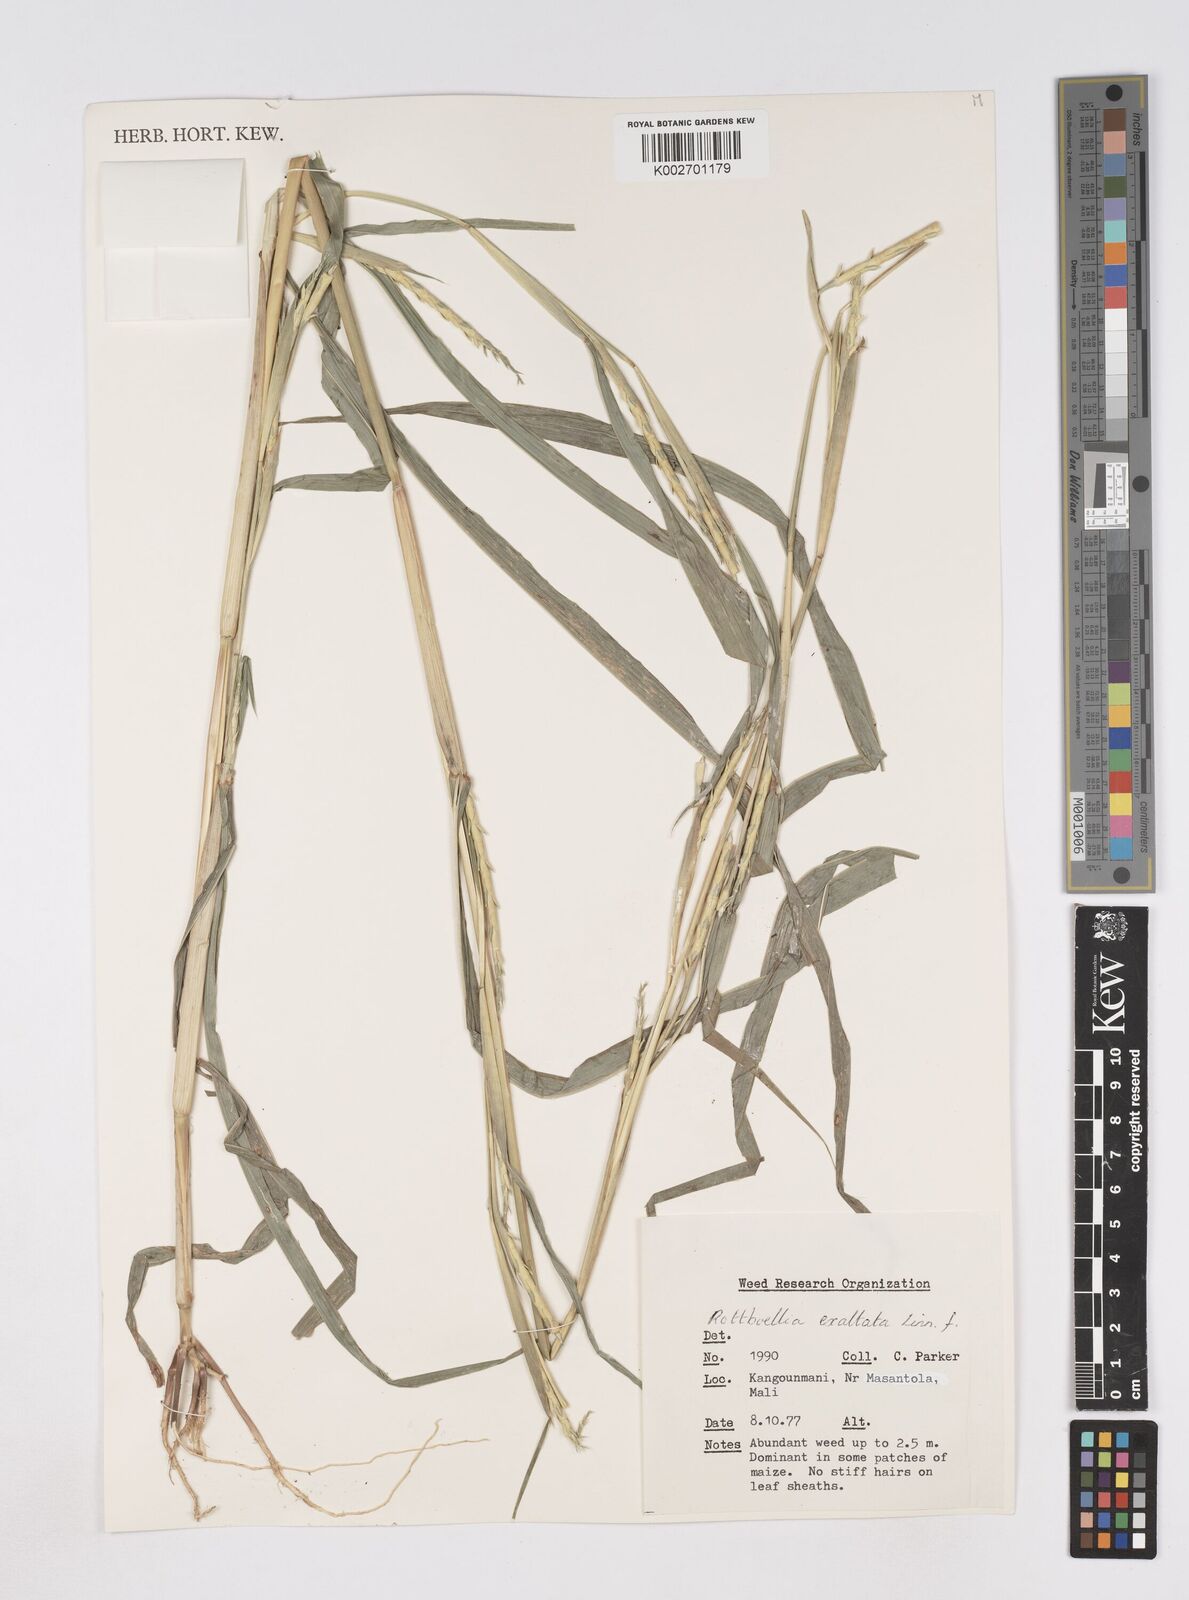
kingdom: Plantae
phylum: Tracheophyta
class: Liliopsida
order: Poales
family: Poaceae
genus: Ophiuros
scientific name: Ophiuros exaltatus
